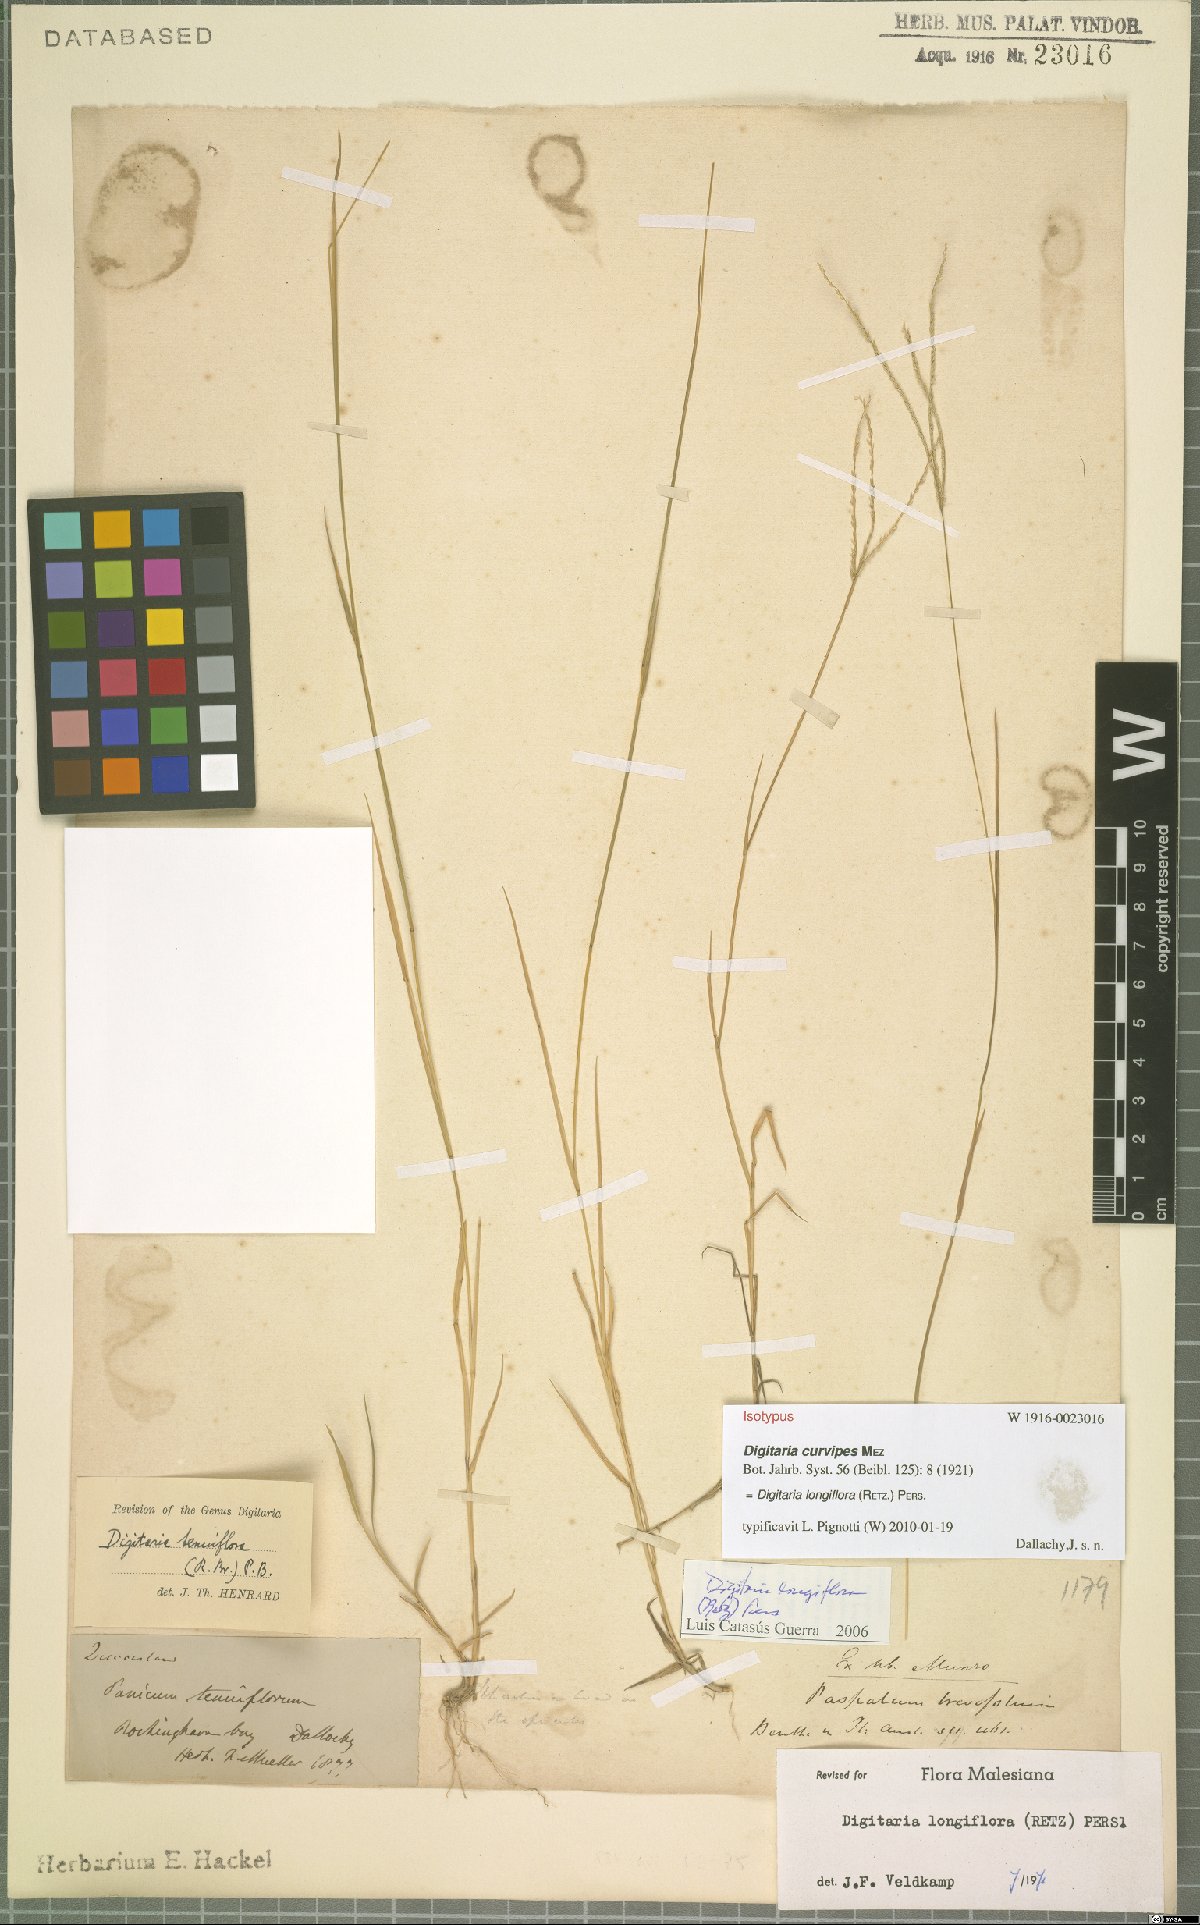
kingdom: Plantae
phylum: Tracheophyta
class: Liliopsida
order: Poales
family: Poaceae
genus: Digitaria
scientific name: Digitaria longiflora
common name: Wire crabgrass
